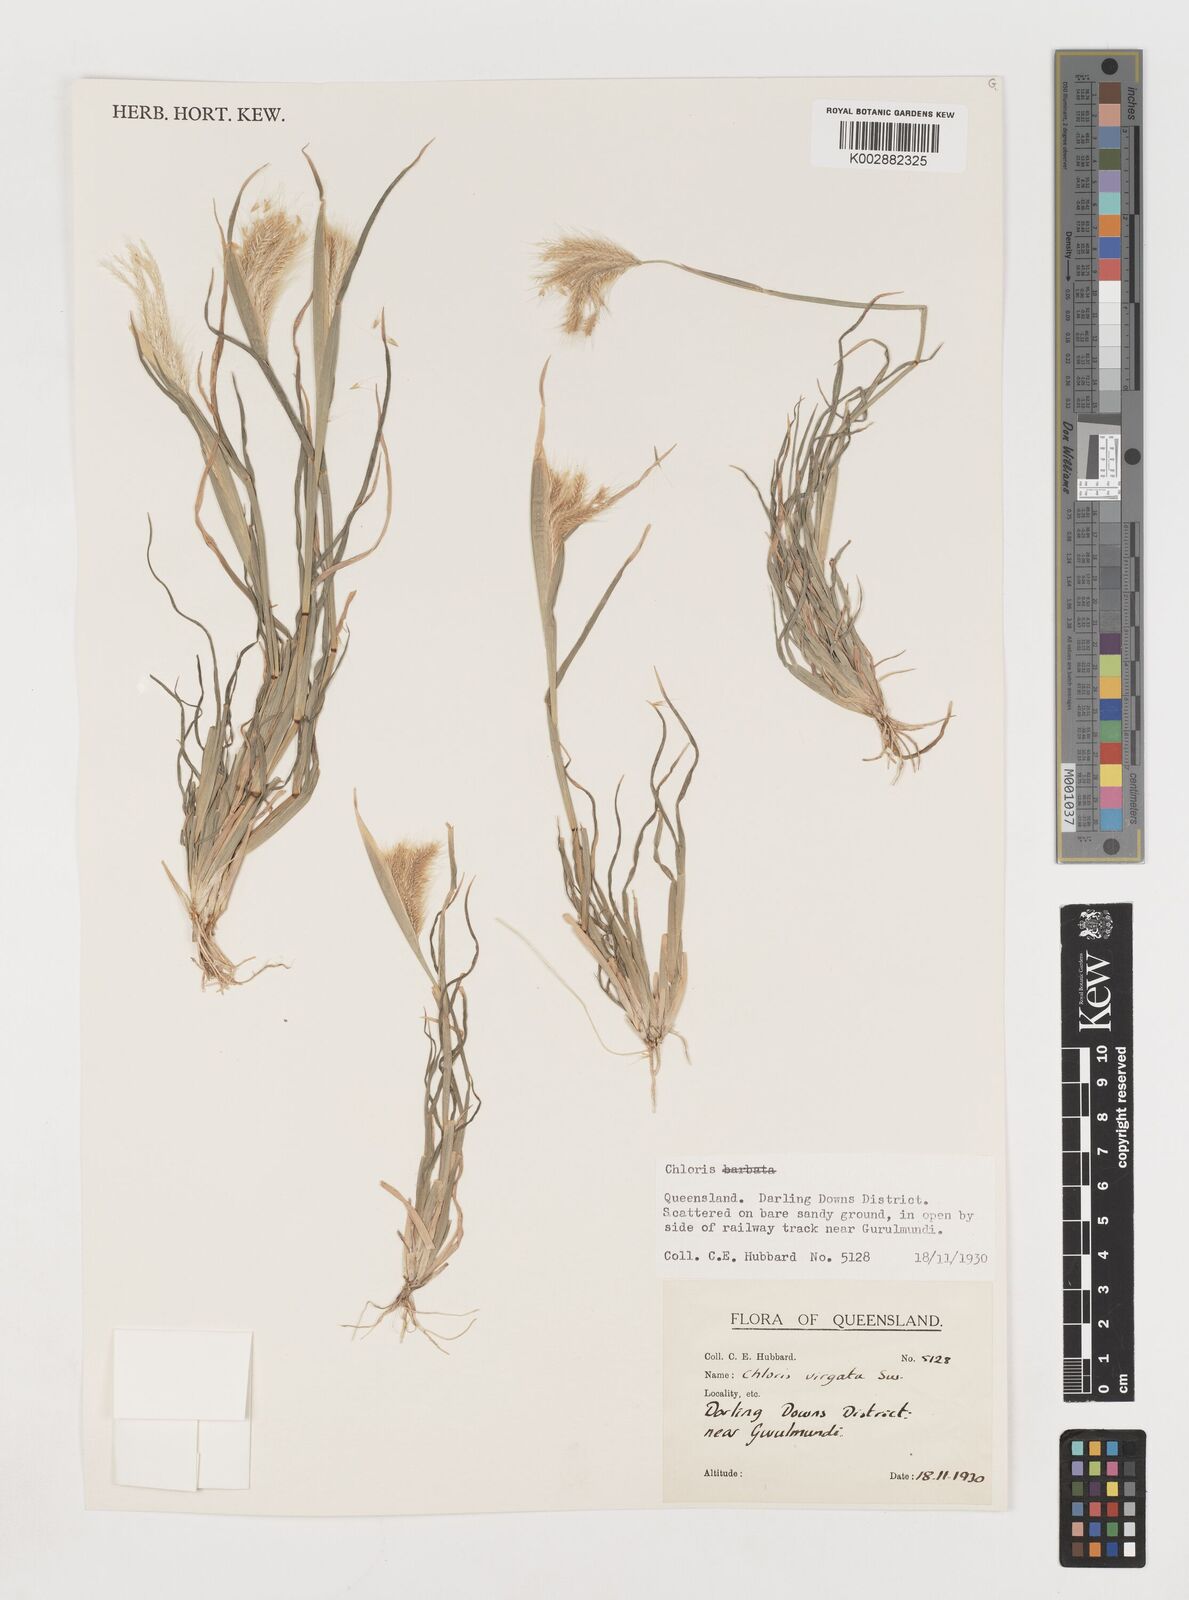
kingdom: Plantae
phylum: Tracheophyta
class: Liliopsida
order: Poales
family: Poaceae
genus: Chloris
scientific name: Chloris virgata
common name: Feathery rhodes-grass
